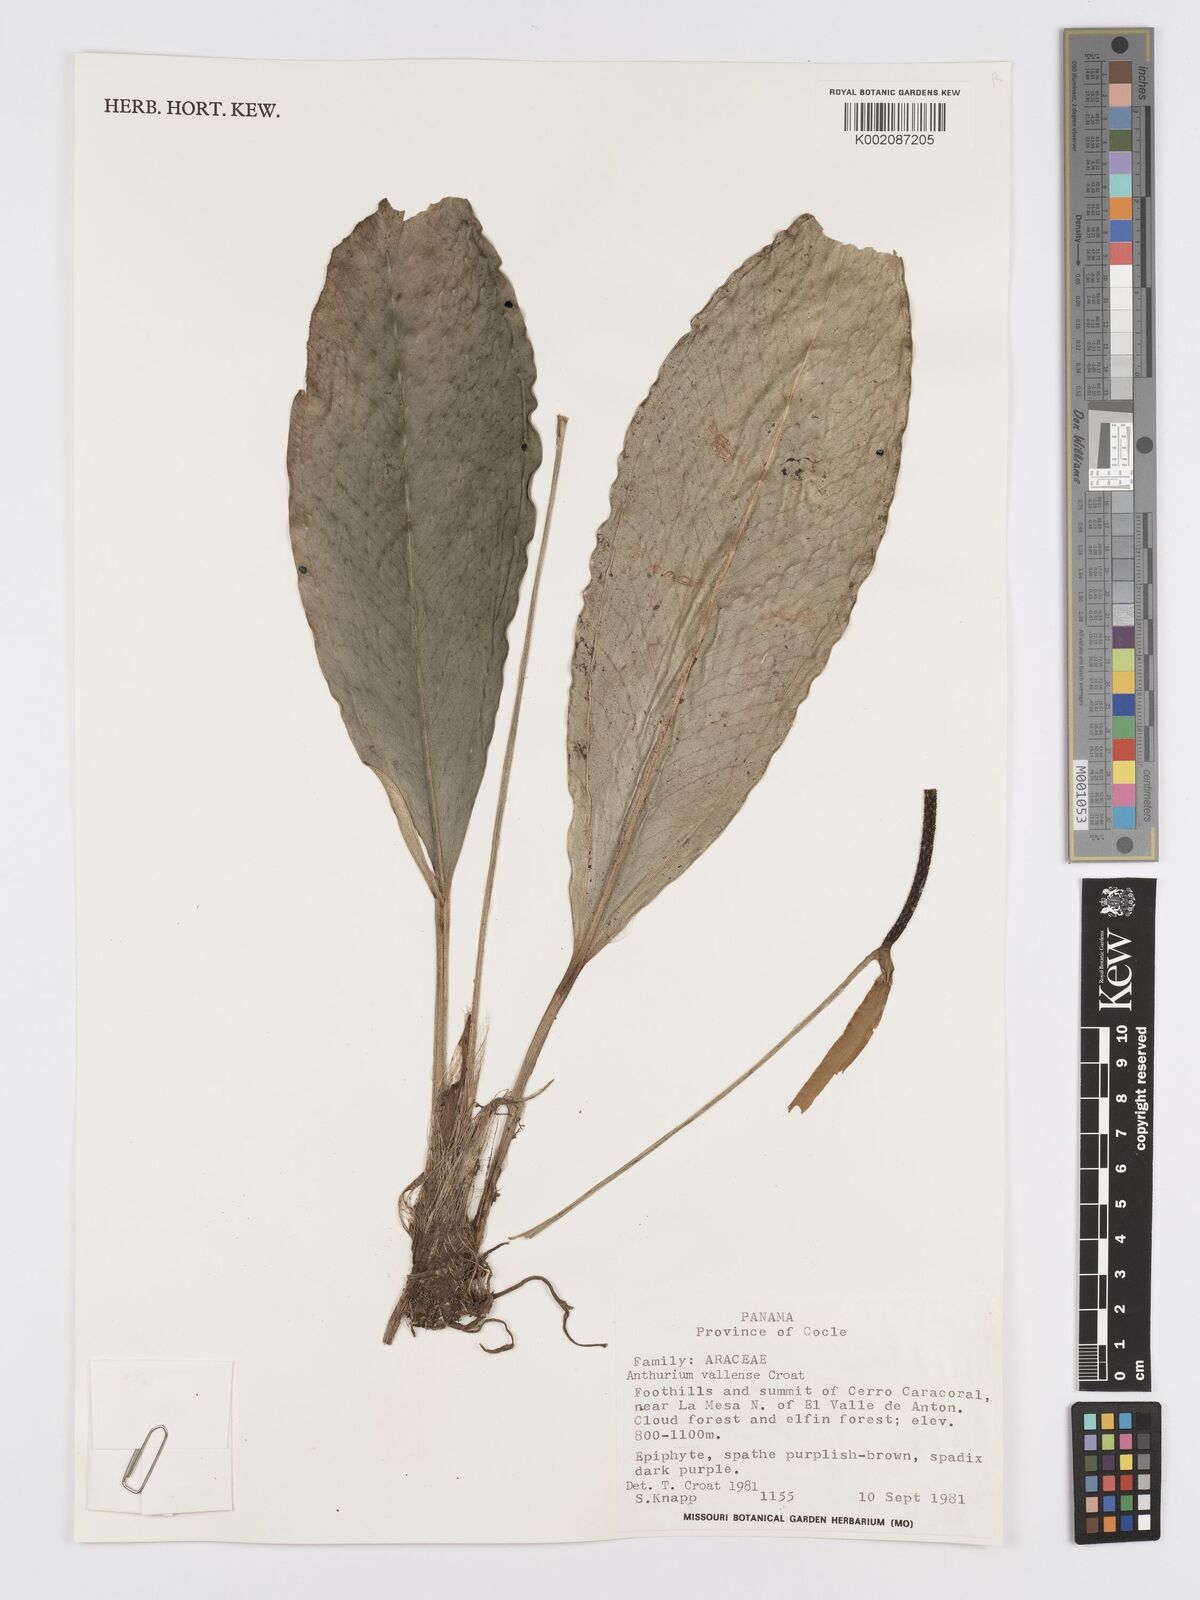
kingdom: Plantae
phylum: Tracheophyta
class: Liliopsida
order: Alismatales
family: Araceae
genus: Anthurium
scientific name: Anthurium vallense
